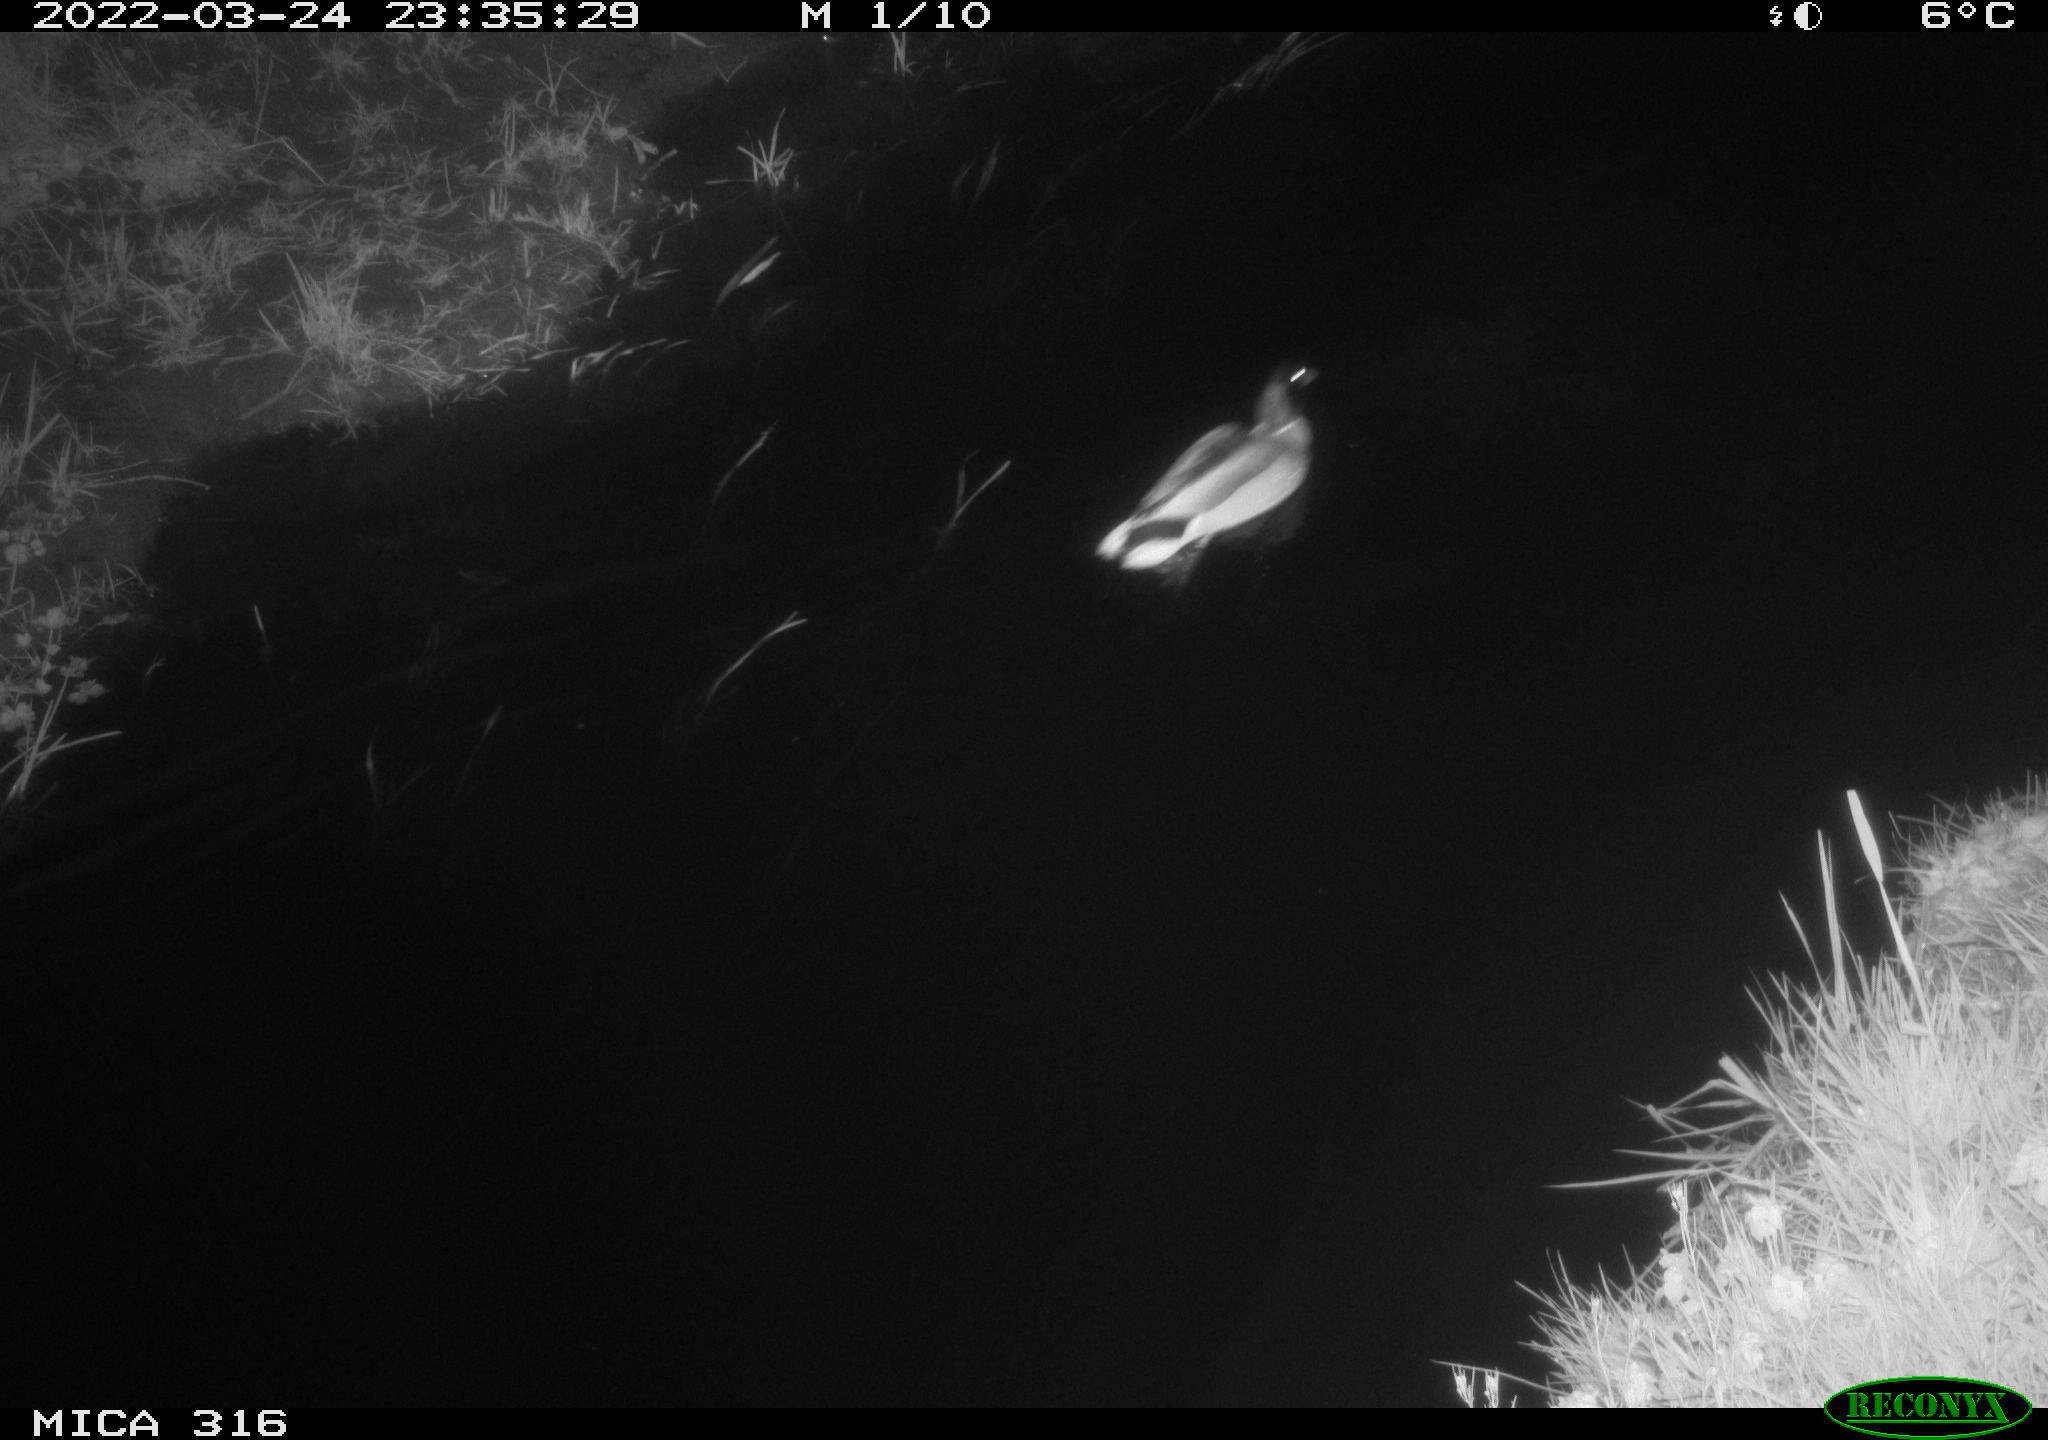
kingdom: Animalia
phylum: Chordata
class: Aves
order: Anseriformes
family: Anatidae
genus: Anas
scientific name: Anas platyrhynchos
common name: Mallard
